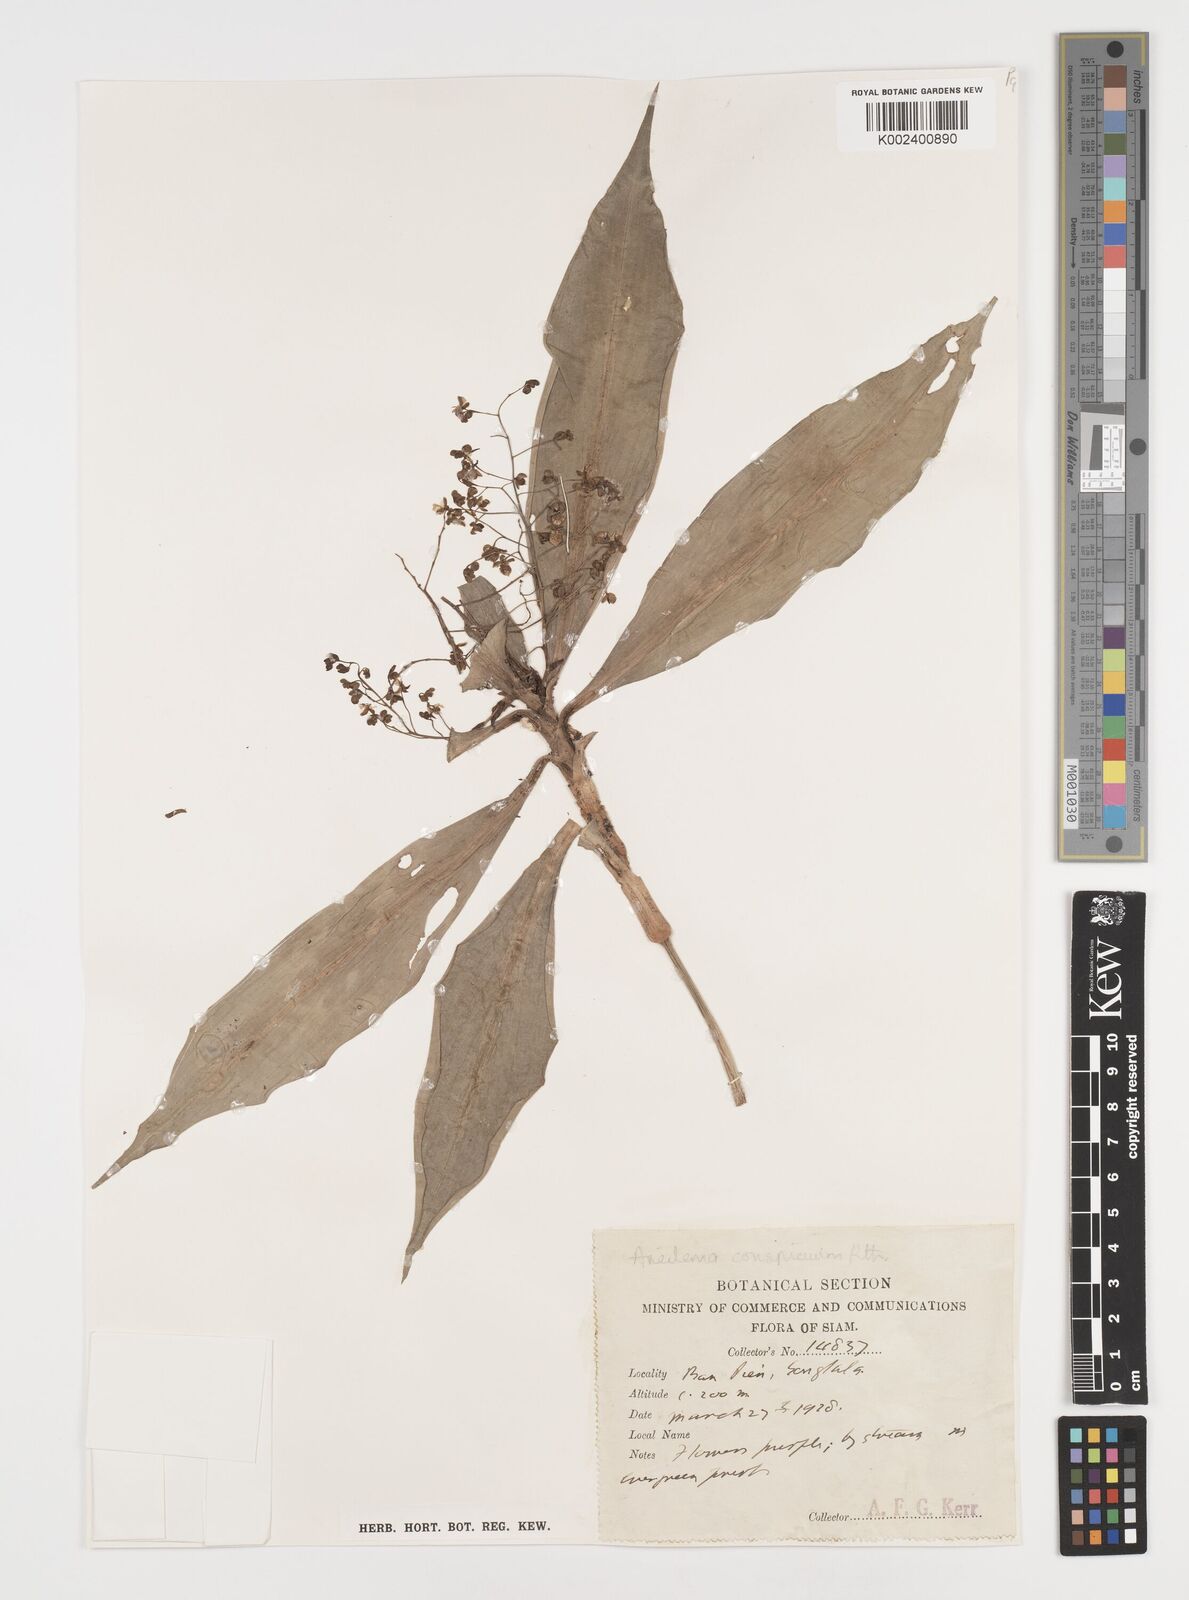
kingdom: Plantae
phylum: Tracheophyta
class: Liliopsida
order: Commelinales
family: Commelinaceae
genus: Dictyospermum
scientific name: Dictyospermum conspicuum
